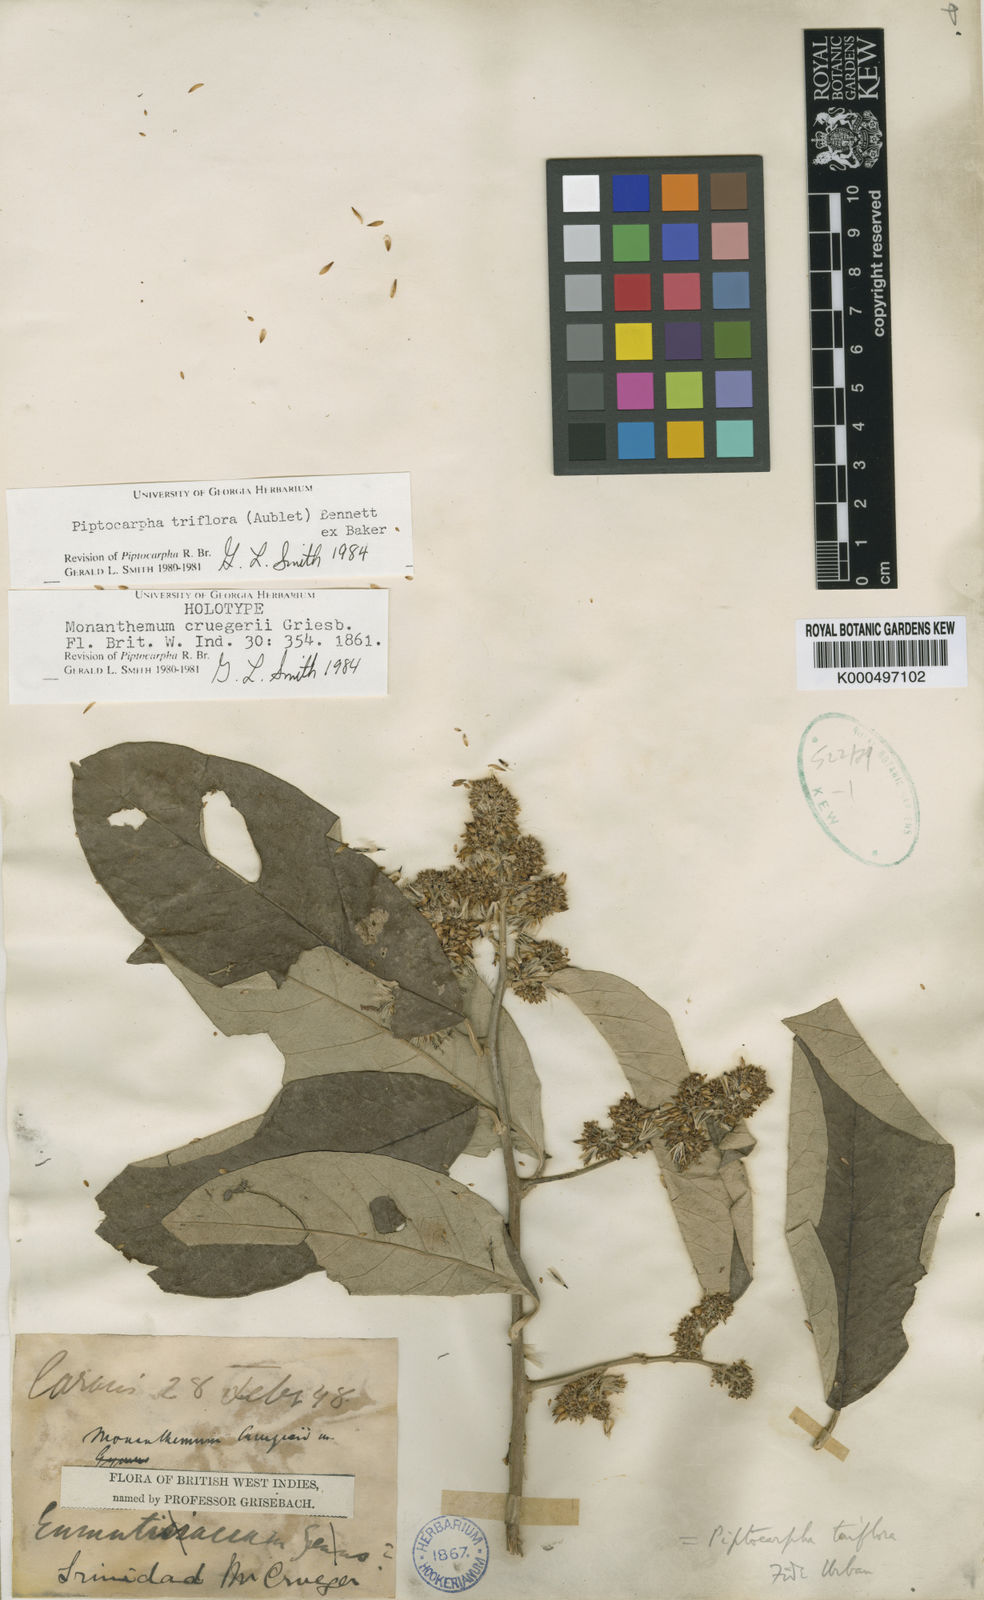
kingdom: Plantae
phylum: Tracheophyta
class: Magnoliopsida
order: Asterales
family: Asteraceae
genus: Piptocarpha
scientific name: Piptocarpha triflora
